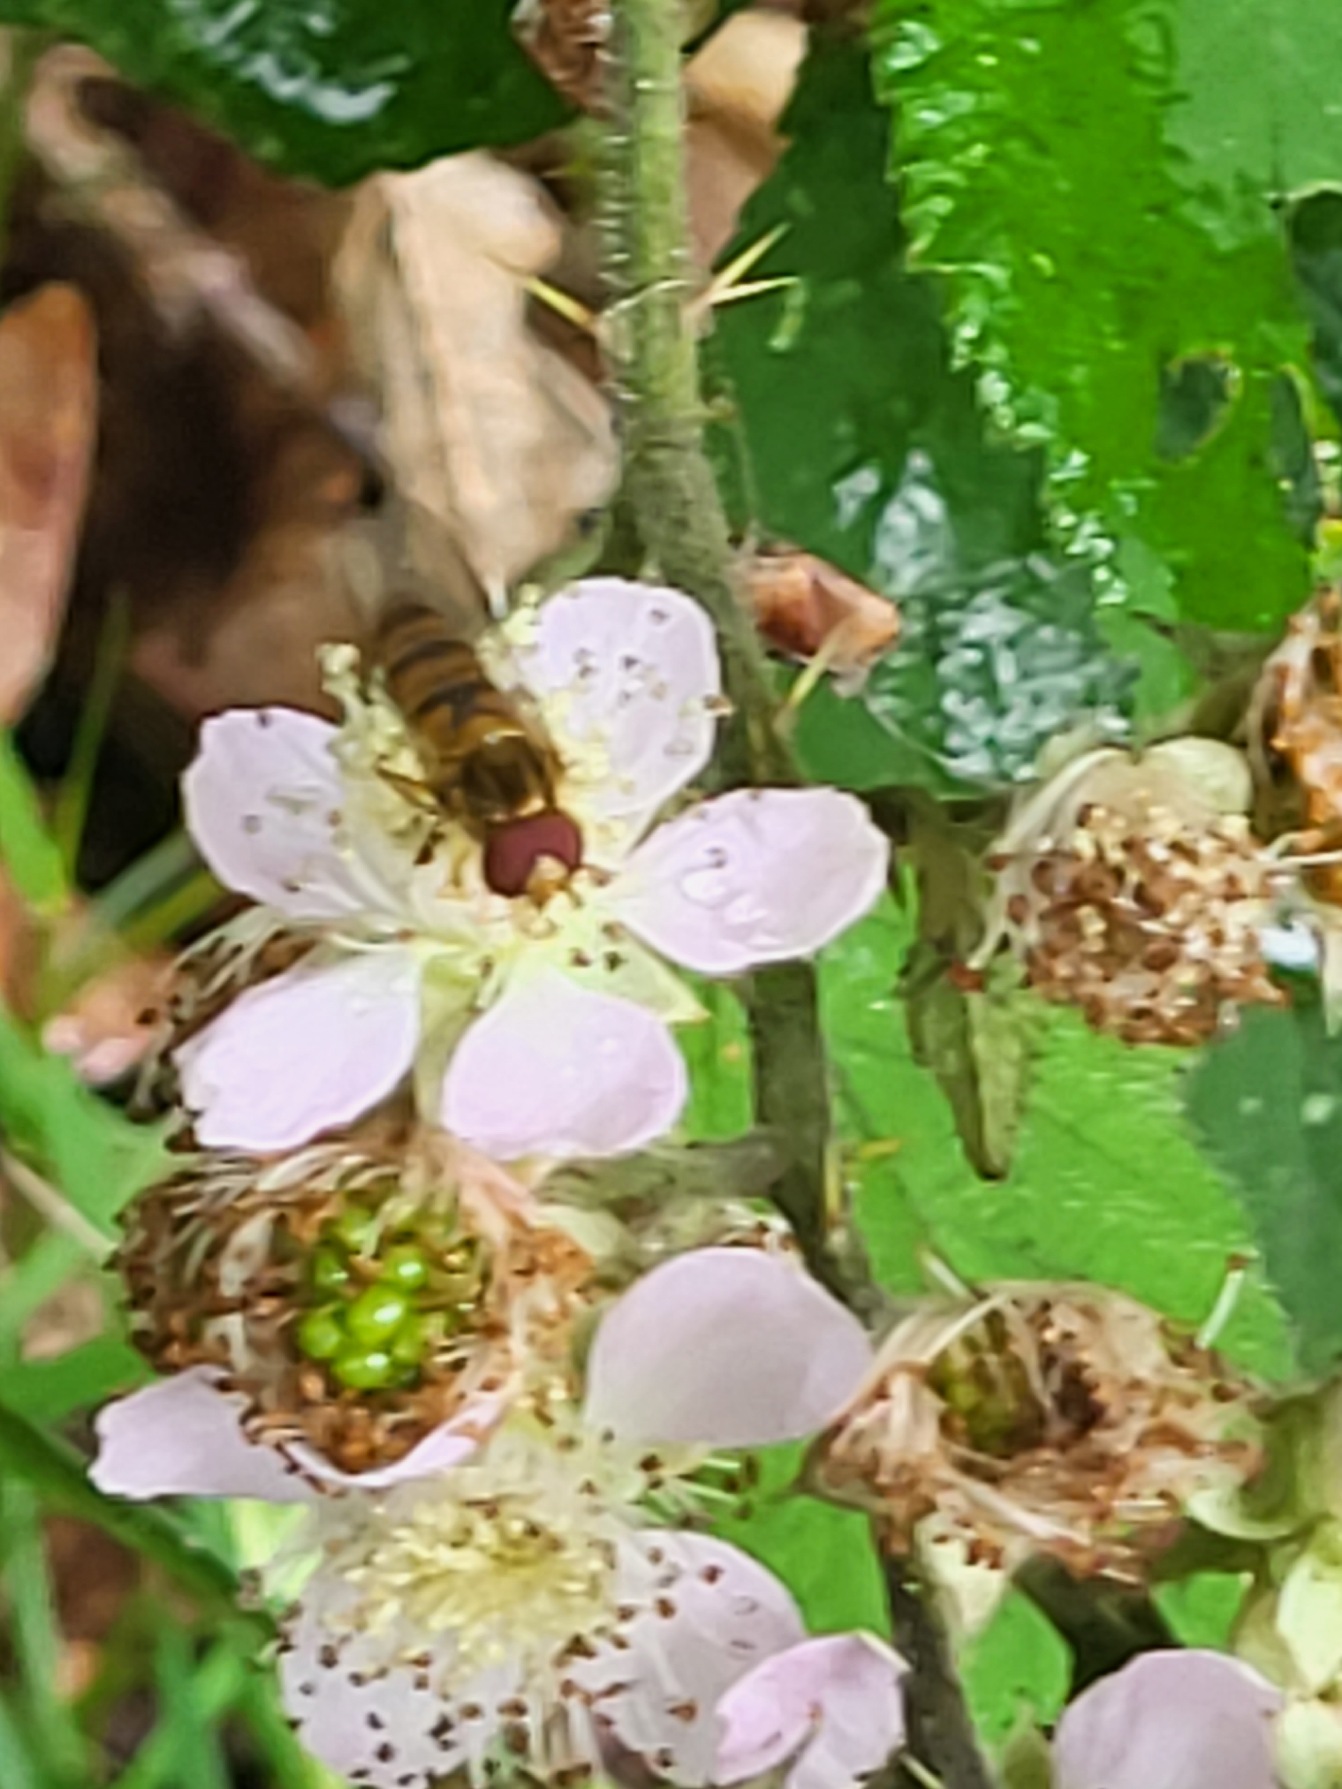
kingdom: Animalia
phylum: Arthropoda
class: Insecta
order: Diptera
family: Syrphidae
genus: Episyrphus
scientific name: Episyrphus balteatus
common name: Dobbeltbåndet svirreflue
